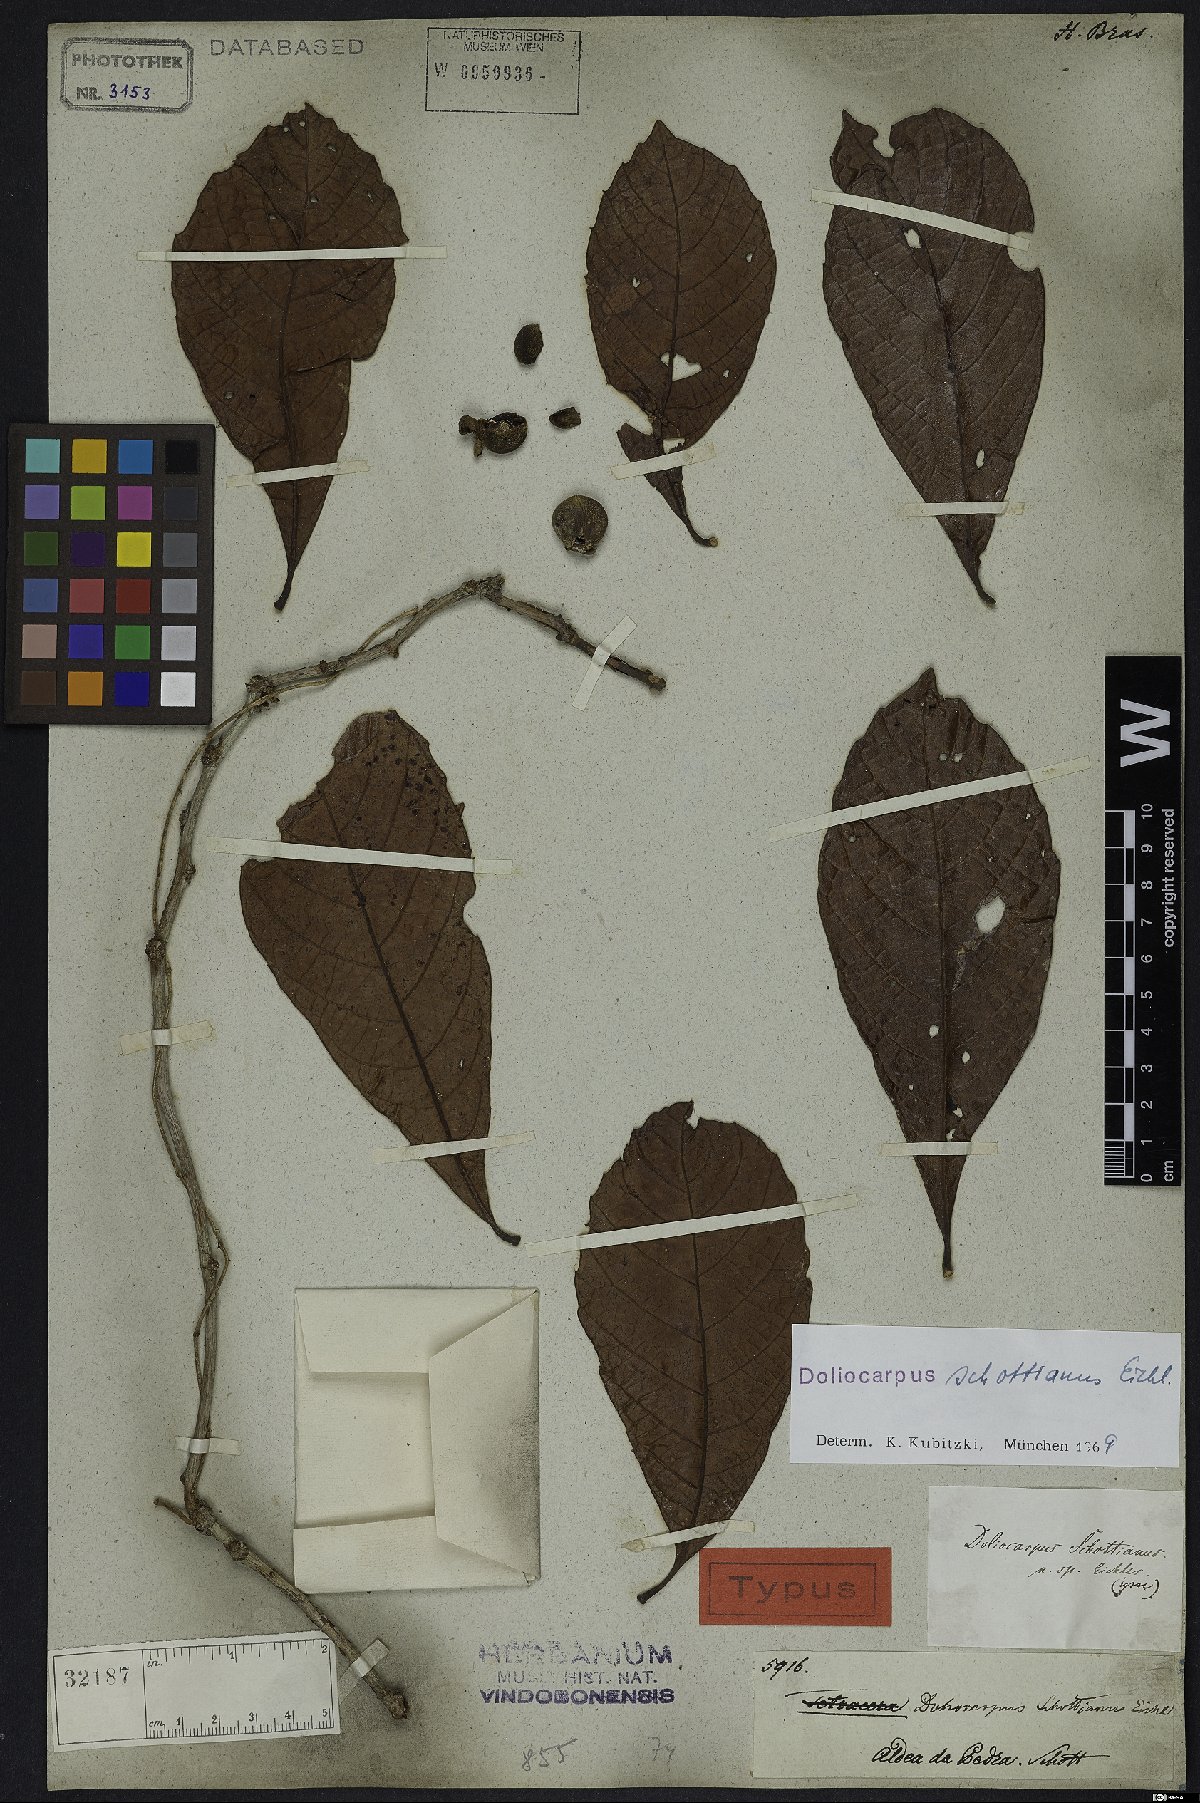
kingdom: Plantae
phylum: Tracheophyta
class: Magnoliopsida
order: Dilleniales
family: Dilleniaceae
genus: Doliocarpus
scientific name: Doliocarpus schottianus
